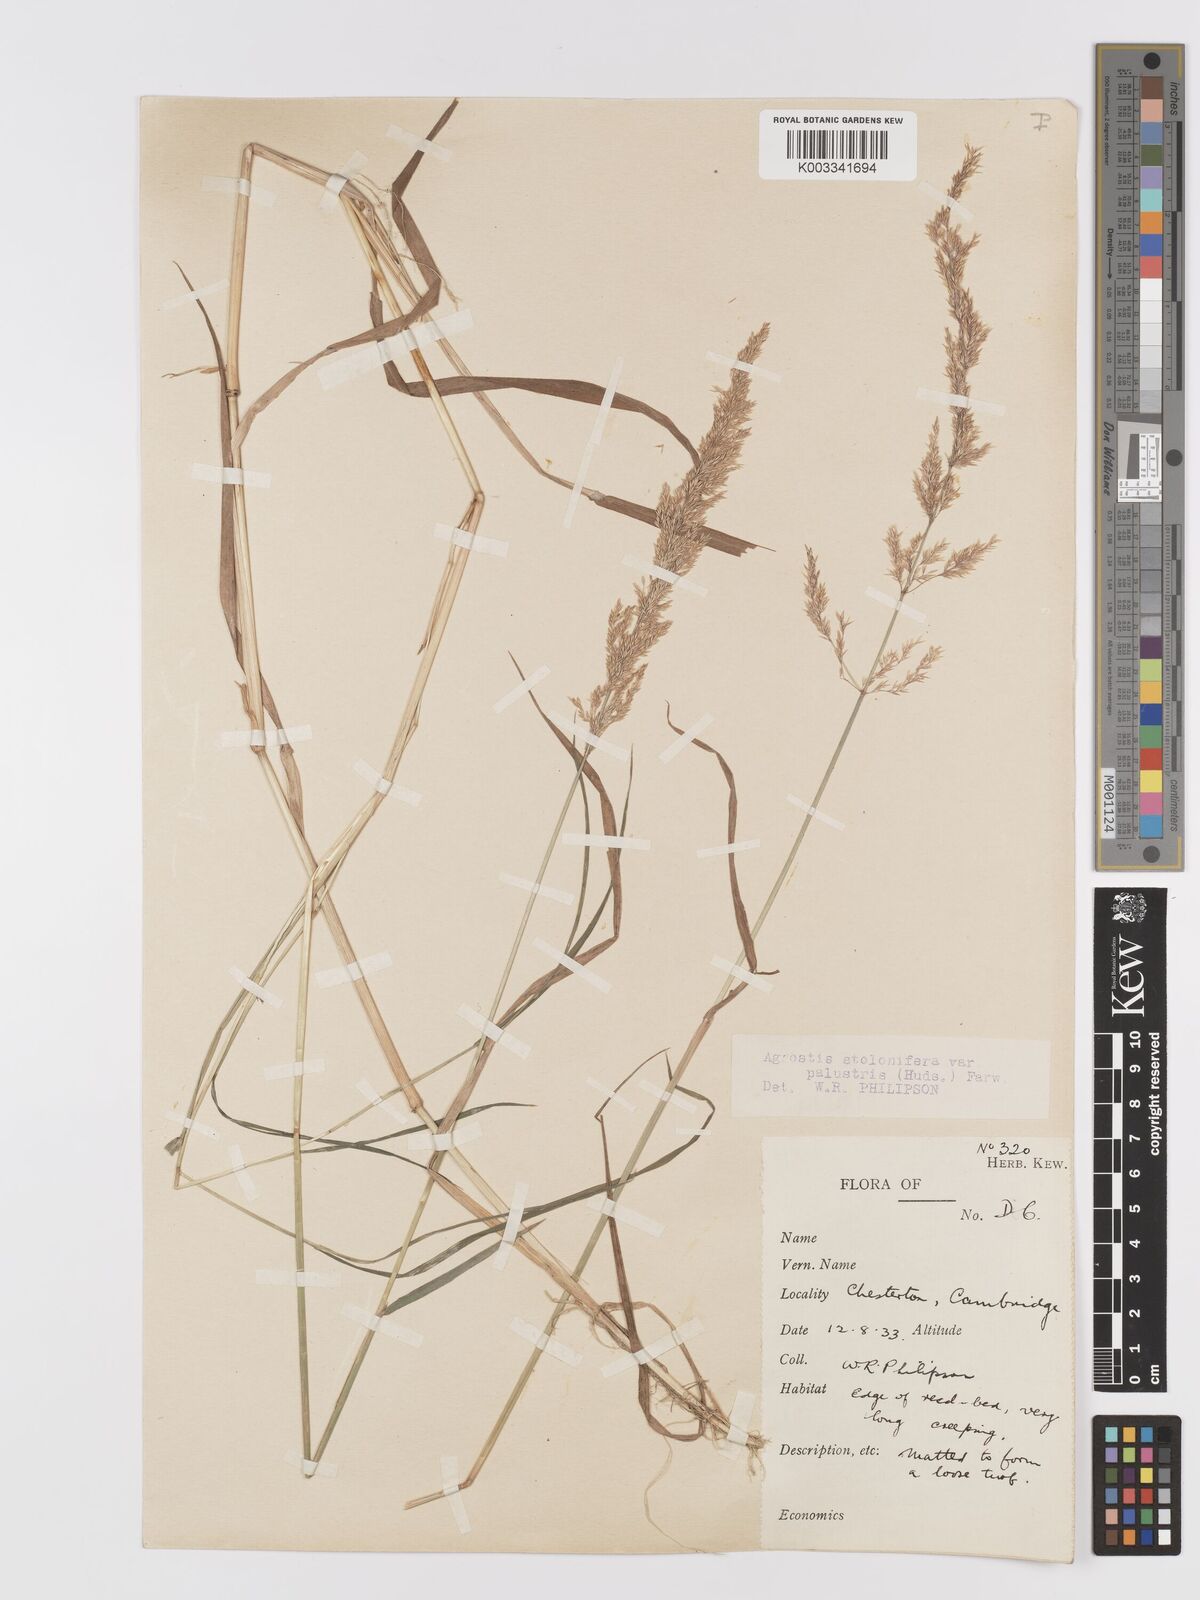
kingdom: Plantae
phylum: Tracheophyta
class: Liliopsida
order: Poales
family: Poaceae
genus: Agrostis
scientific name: Agrostis stolonifera
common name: Creeping bentgrass
